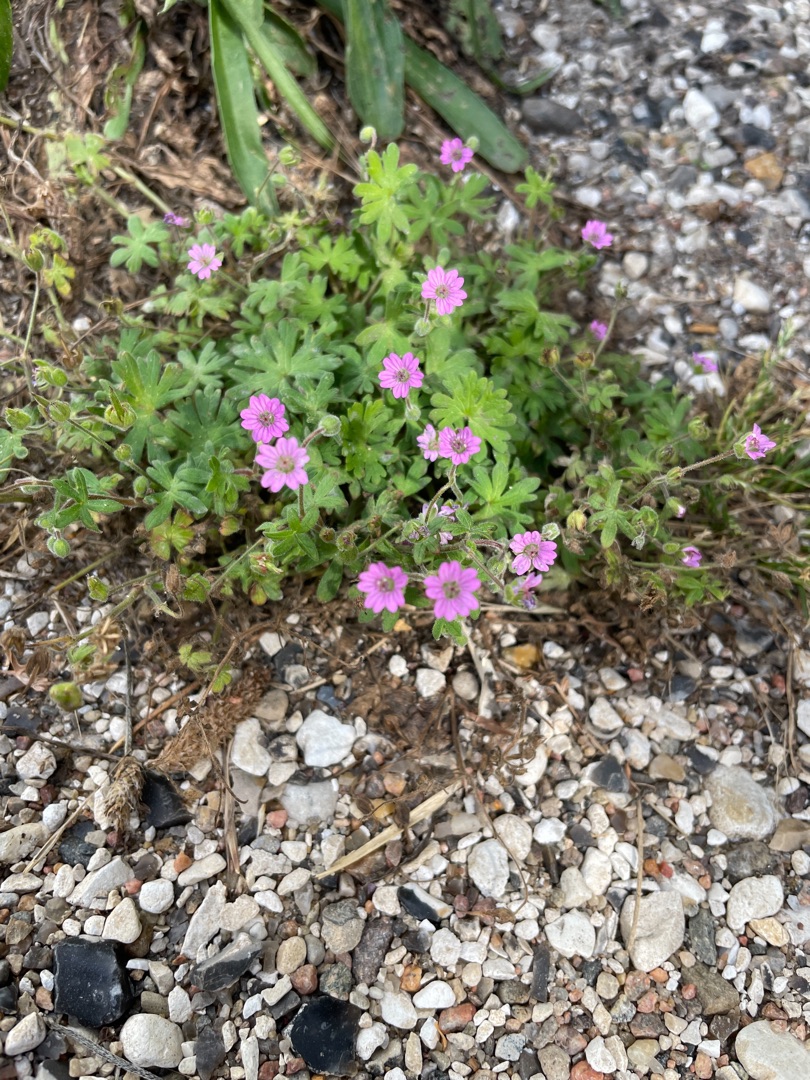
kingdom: Plantae
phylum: Tracheophyta
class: Magnoliopsida
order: Geraniales
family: Geraniaceae
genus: Geranium
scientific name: Geranium molle
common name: Blød storkenæb
